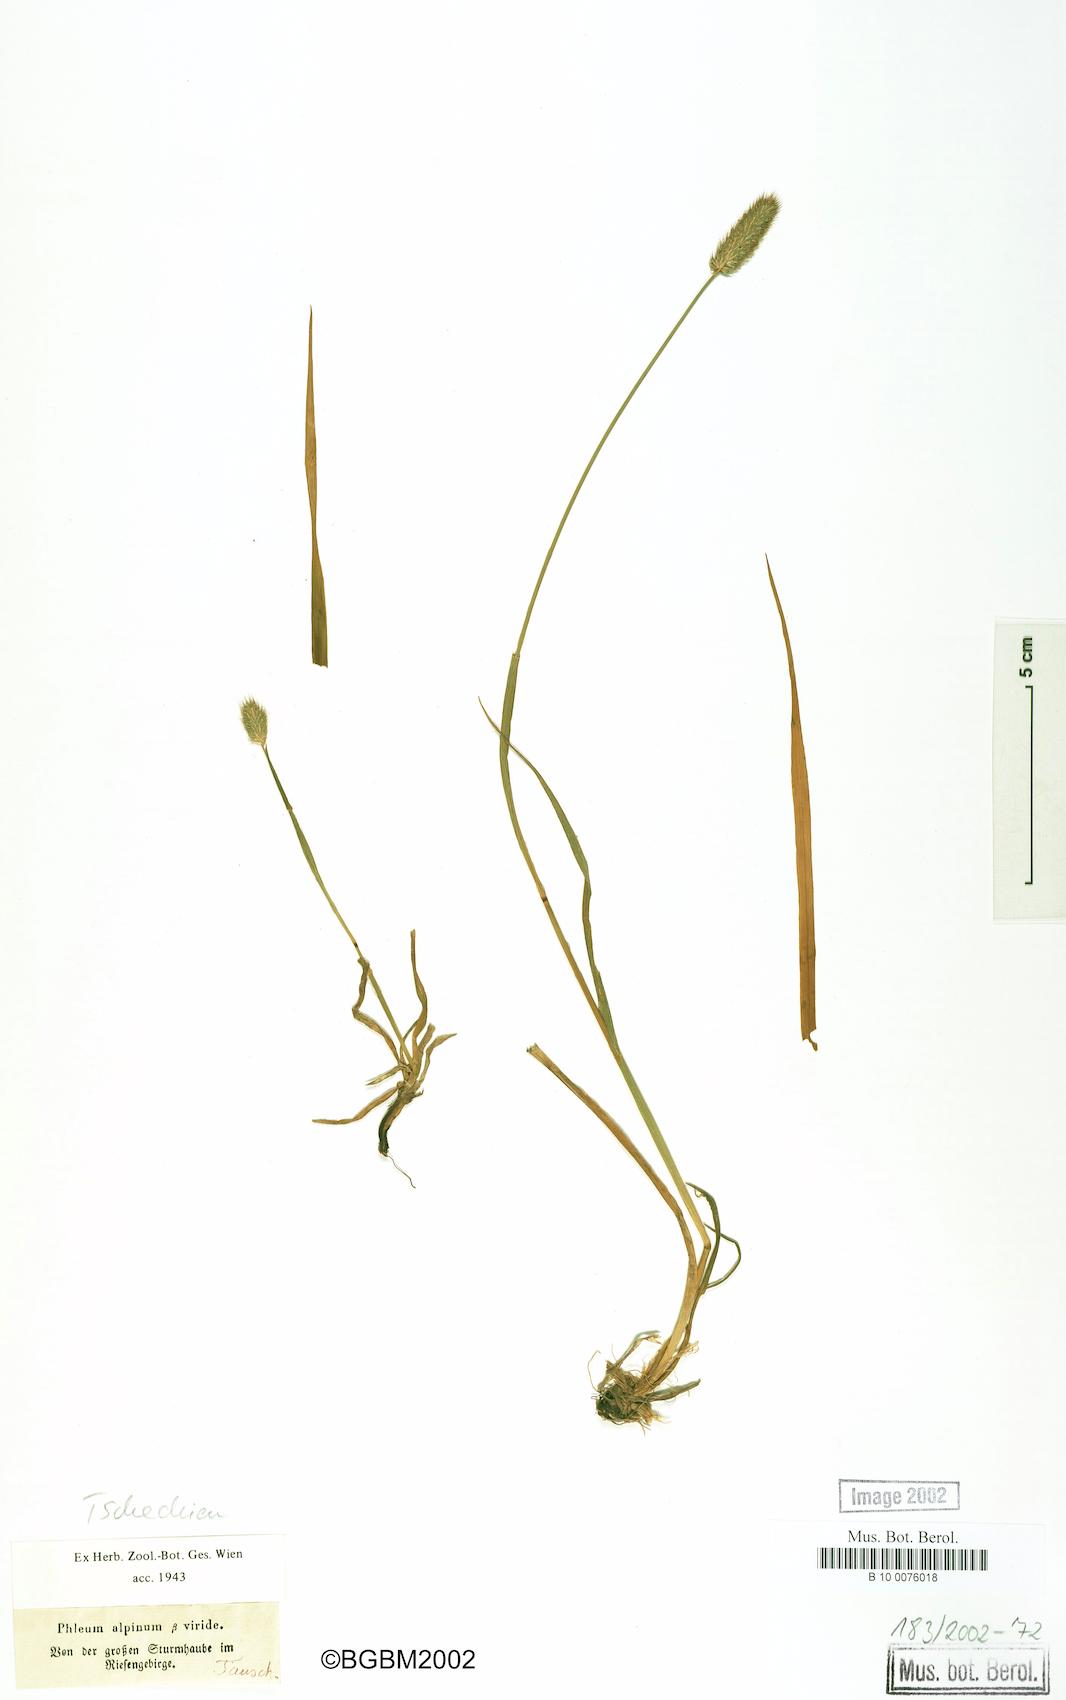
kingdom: Plantae
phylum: Tracheophyta
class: Liliopsida
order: Poales
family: Poaceae
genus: Phleum
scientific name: Phleum alpinum
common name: Alpine cat's-tail
